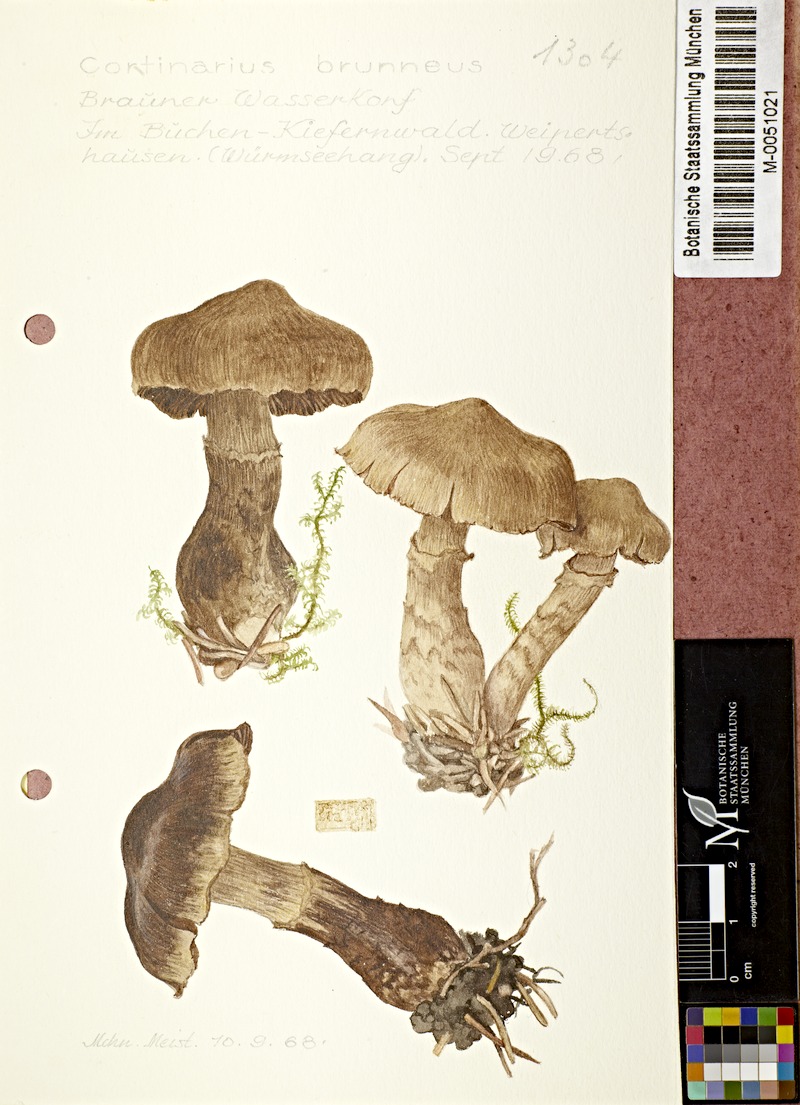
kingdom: Fungi
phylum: Basidiomycota
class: Agaricomycetes
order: Agaricales
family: Cortinariaceae
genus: Cortinarius
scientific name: Cortinarius brunneus
